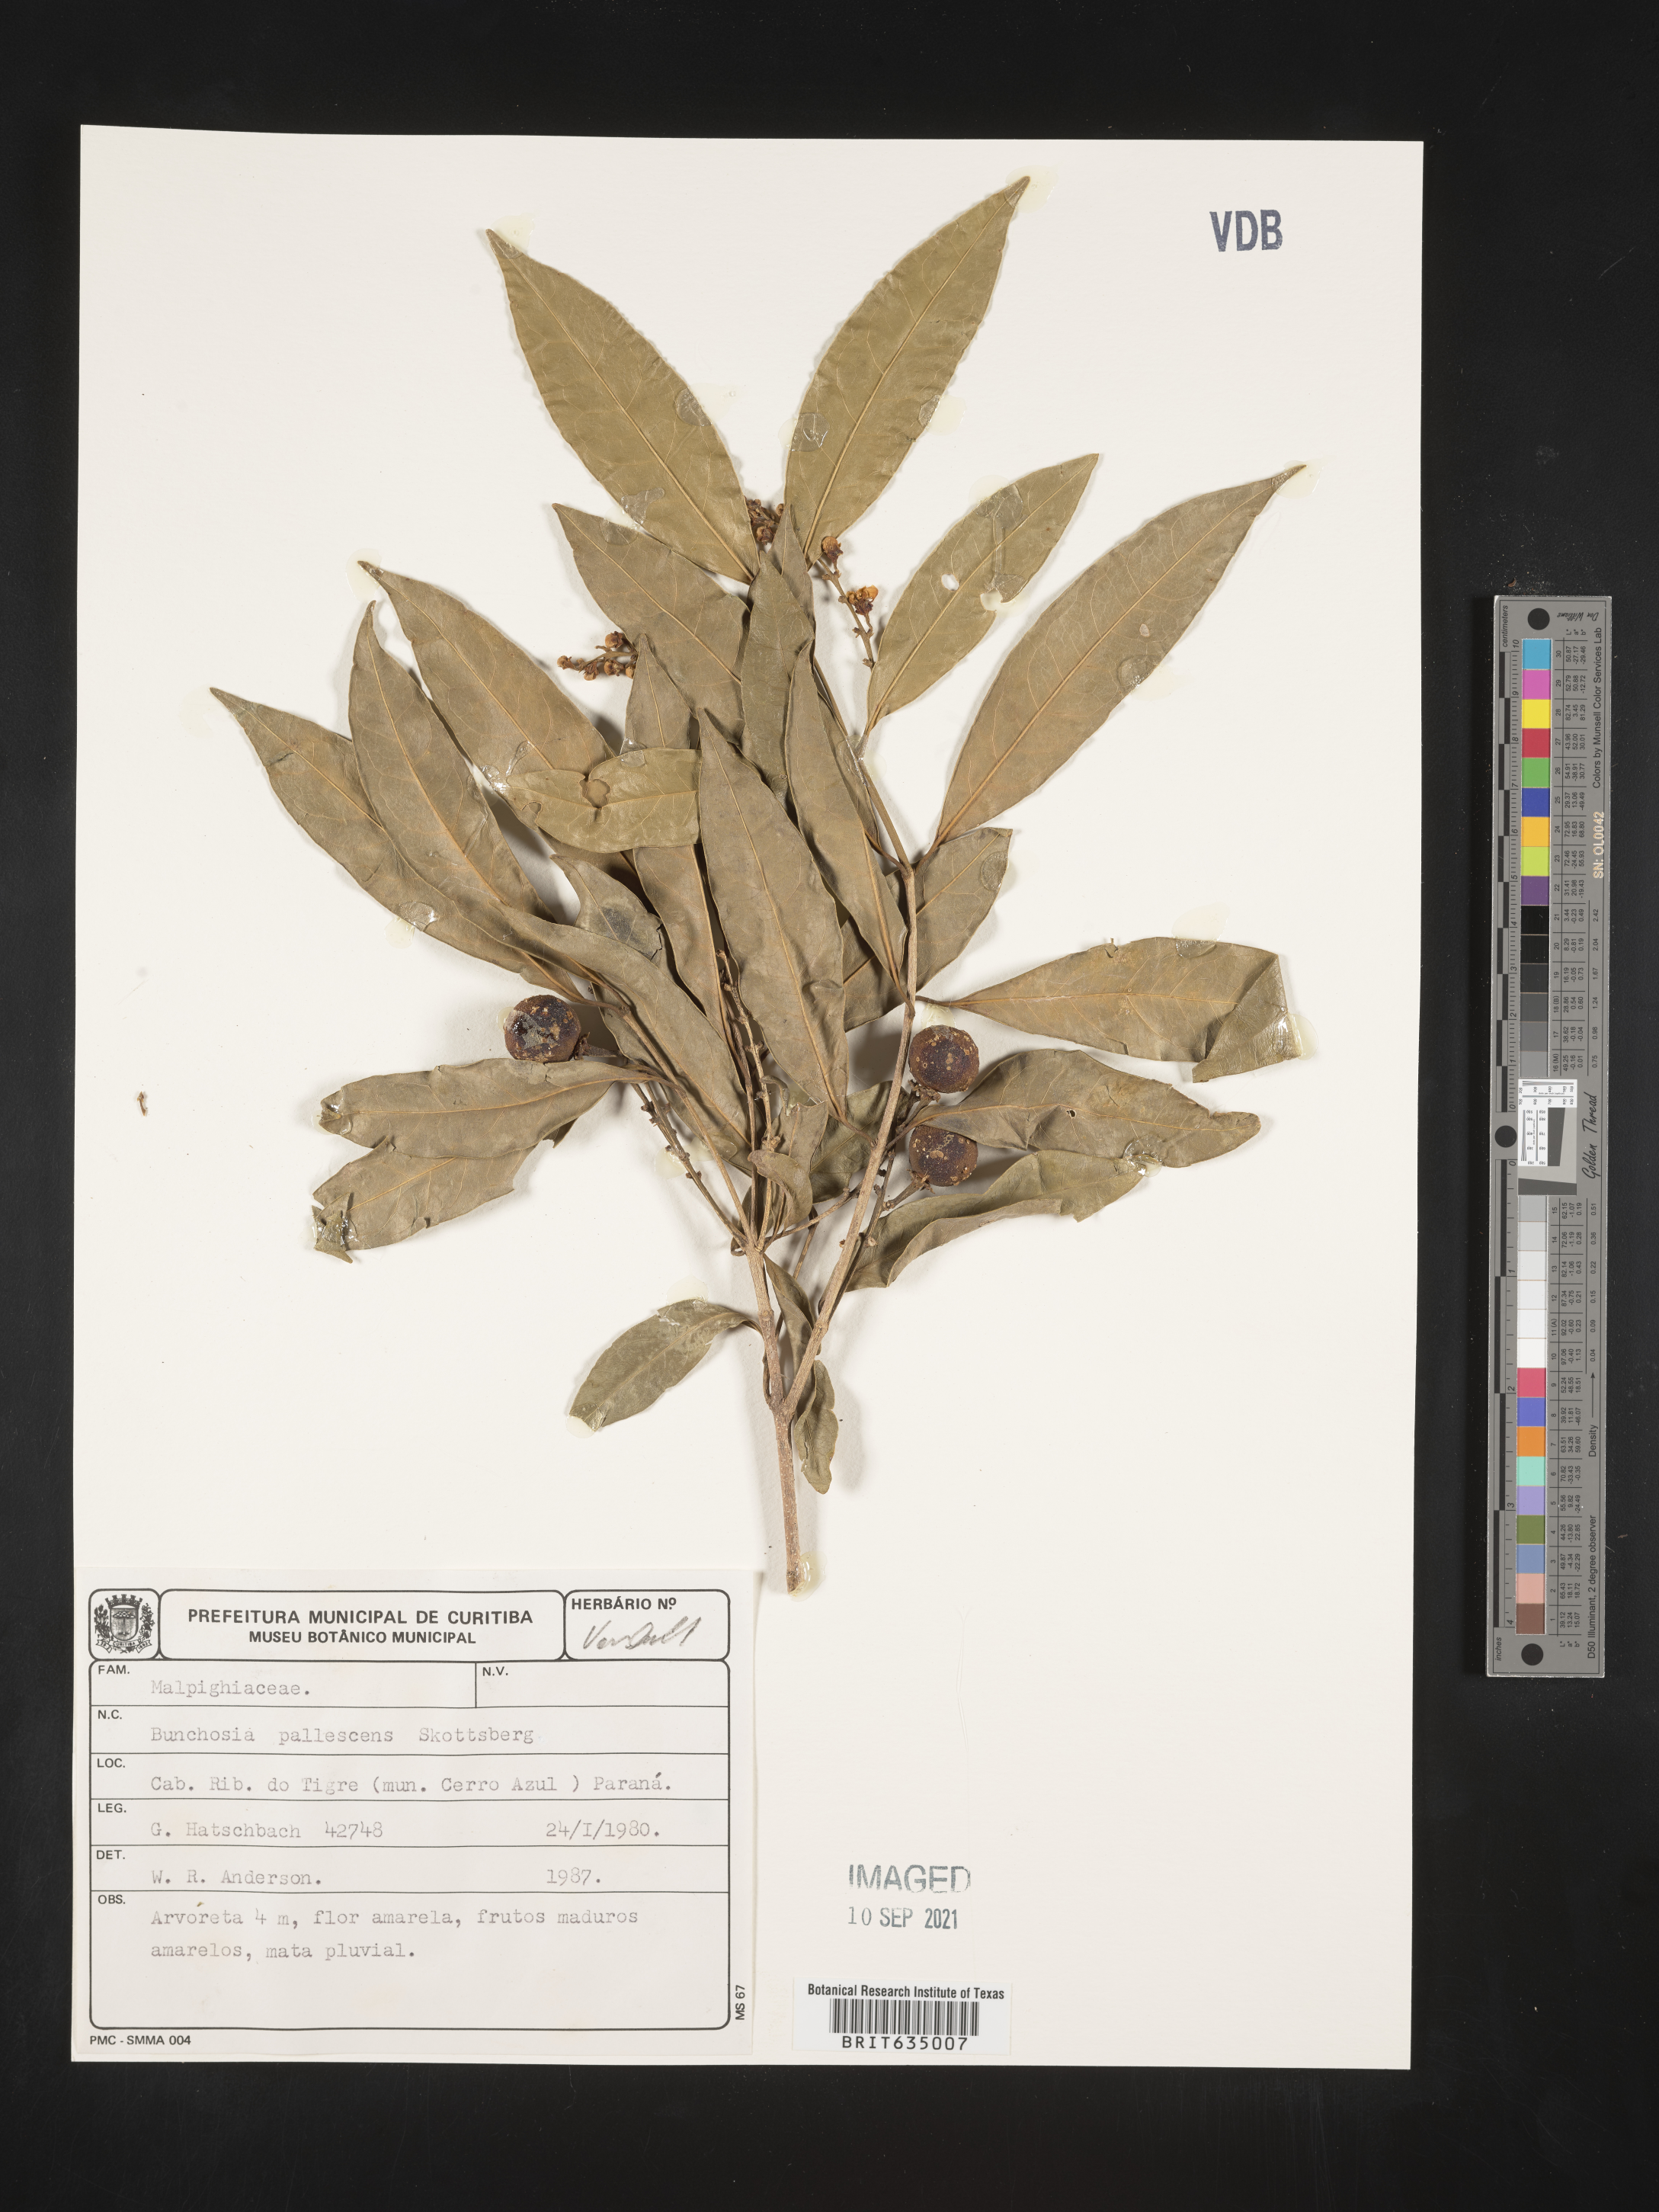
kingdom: Plantae
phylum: Tracheophyta
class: Magnoliopsida
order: Malpighiales
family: Malpighiaceae
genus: Bunchosia
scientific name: Bunchosia
